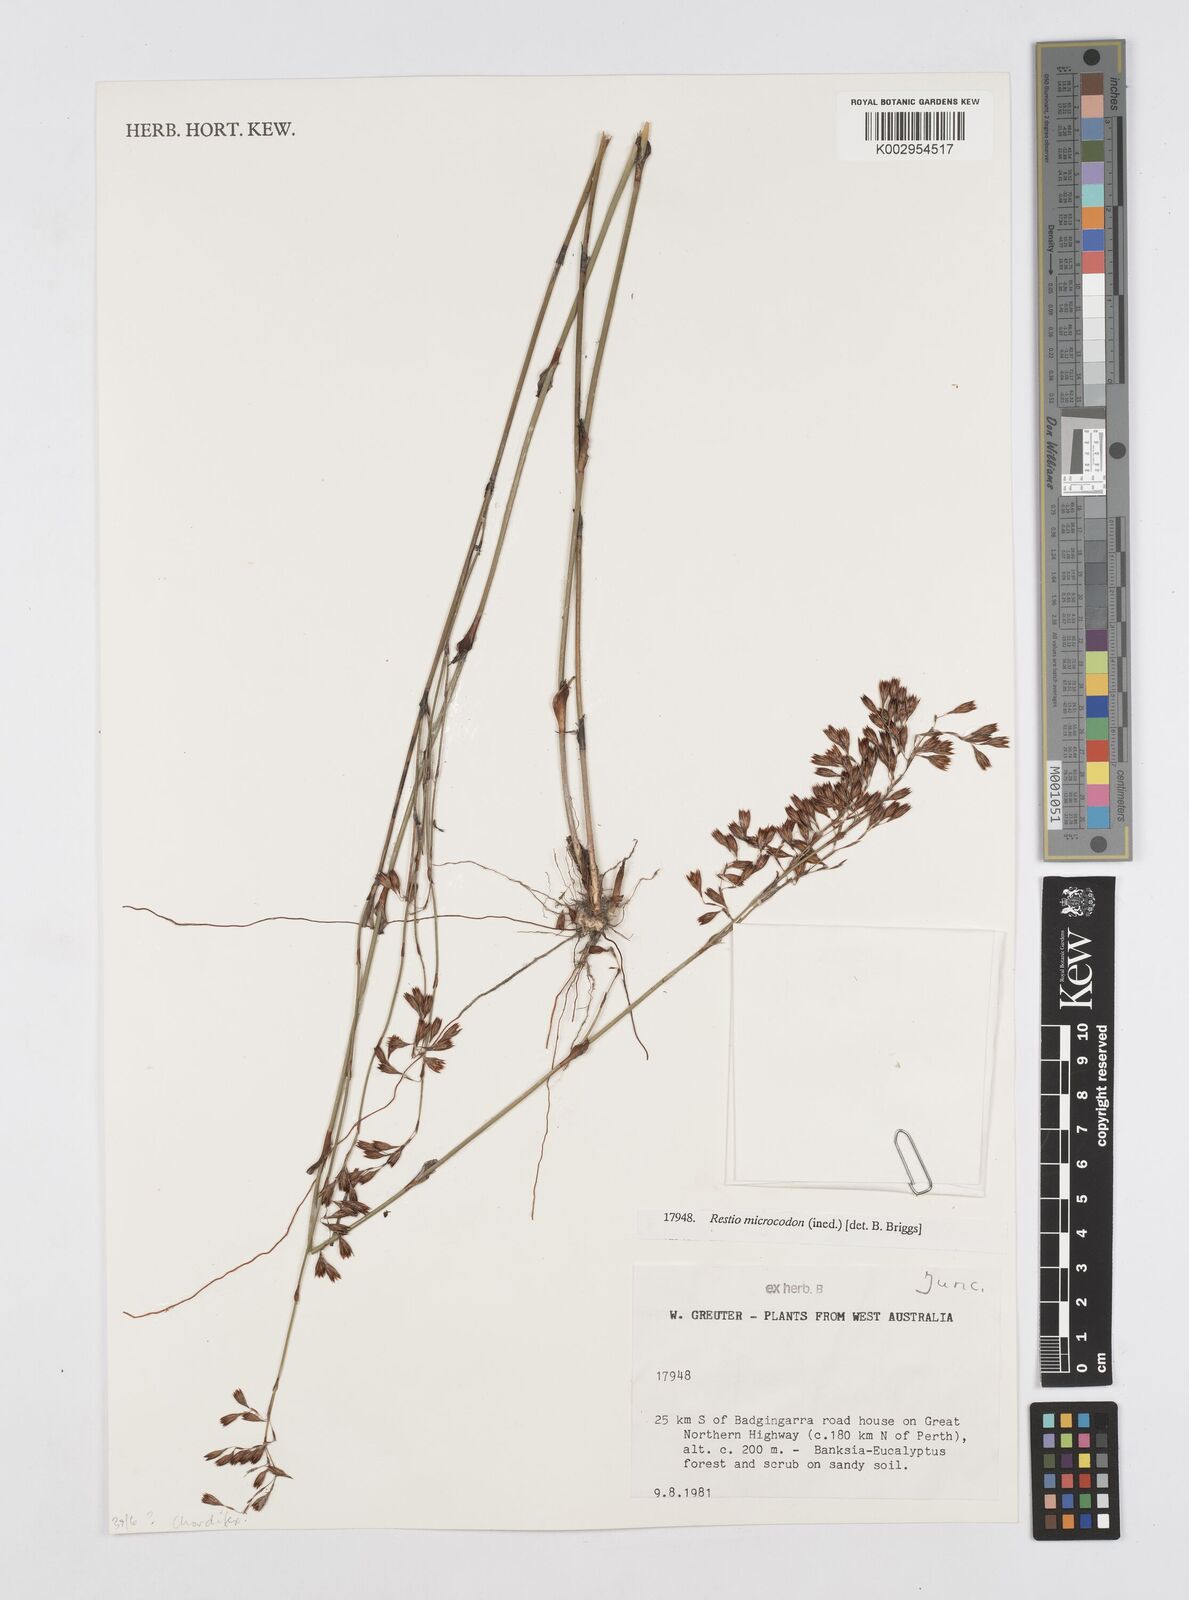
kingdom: Plantae
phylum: Tracheophyta
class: Liliopsida
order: Poales
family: Restionaceae
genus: Chordifex
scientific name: Chordifex microcodon
